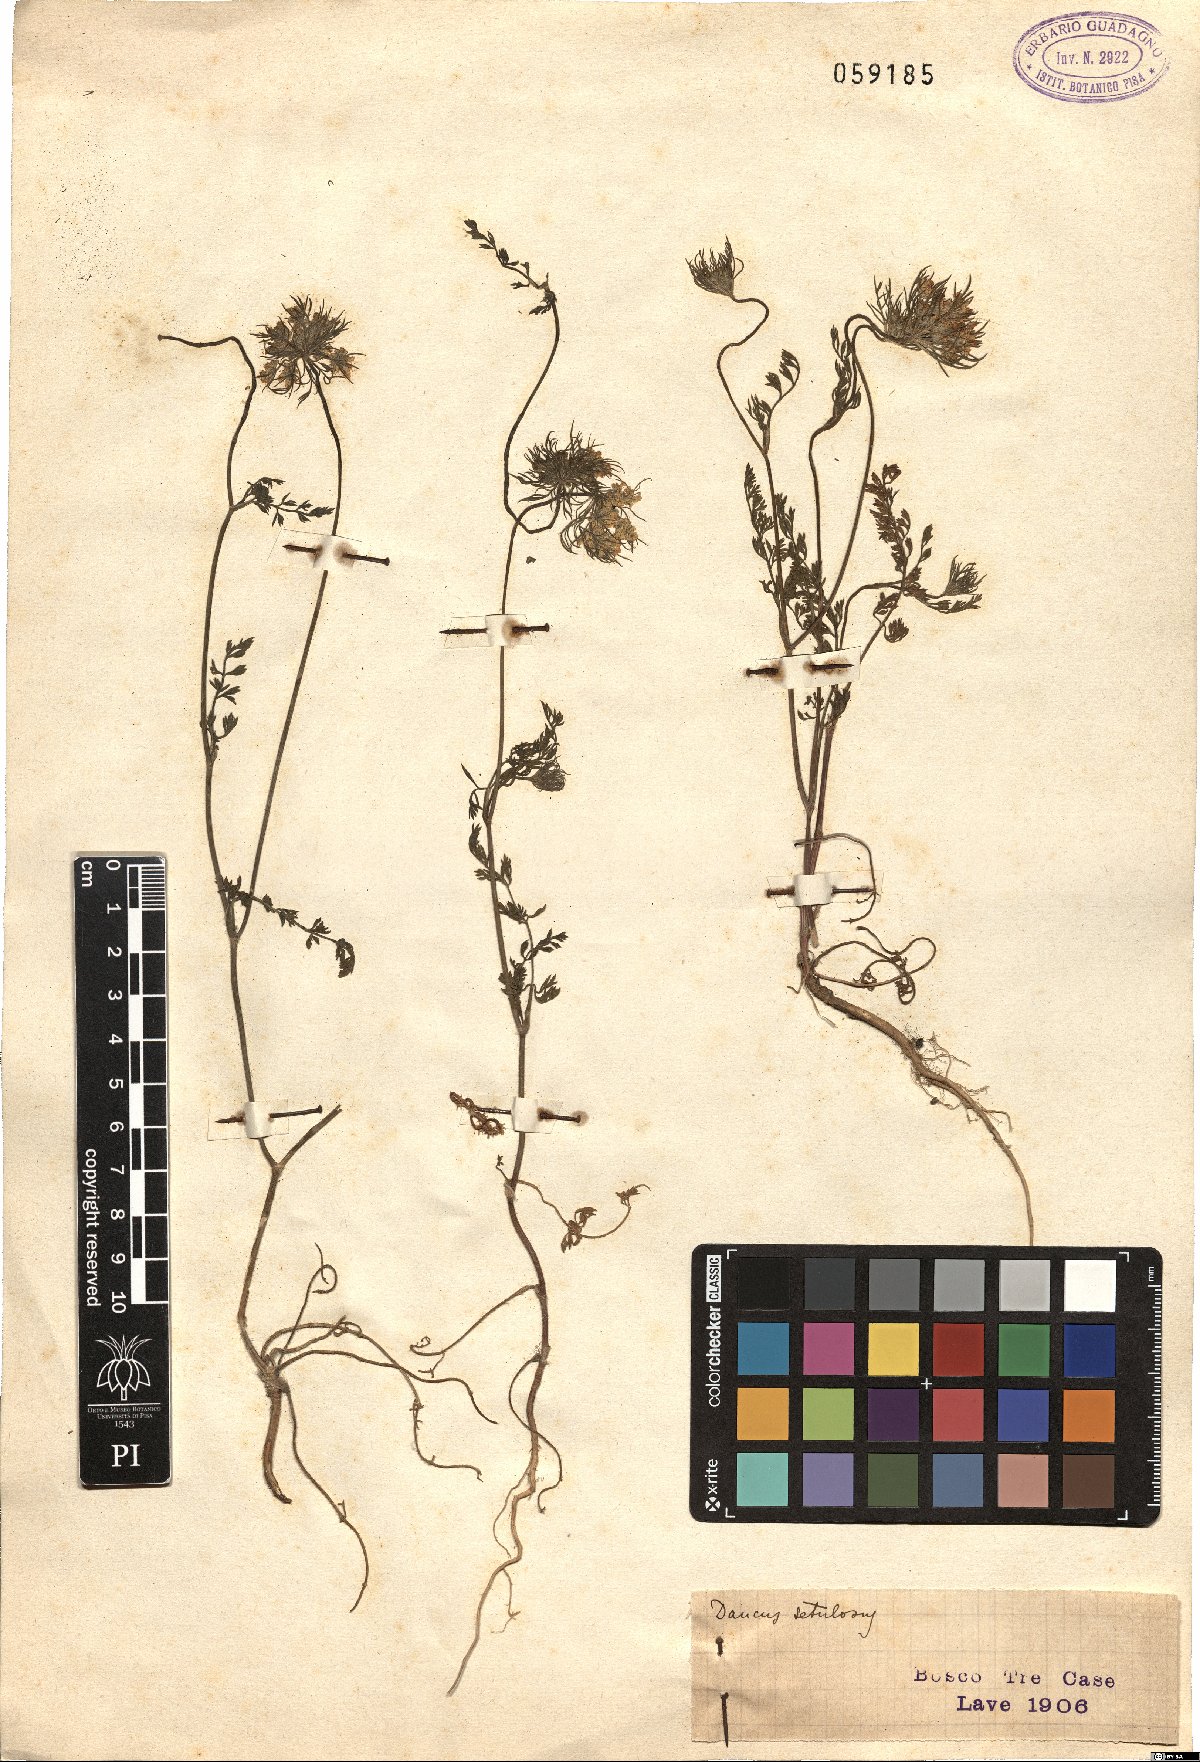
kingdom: Plantae
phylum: Tracheophyta
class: Magnoliopsida
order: Apiales
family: Apiaceae
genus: Daucus
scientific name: Daucus guttatus
